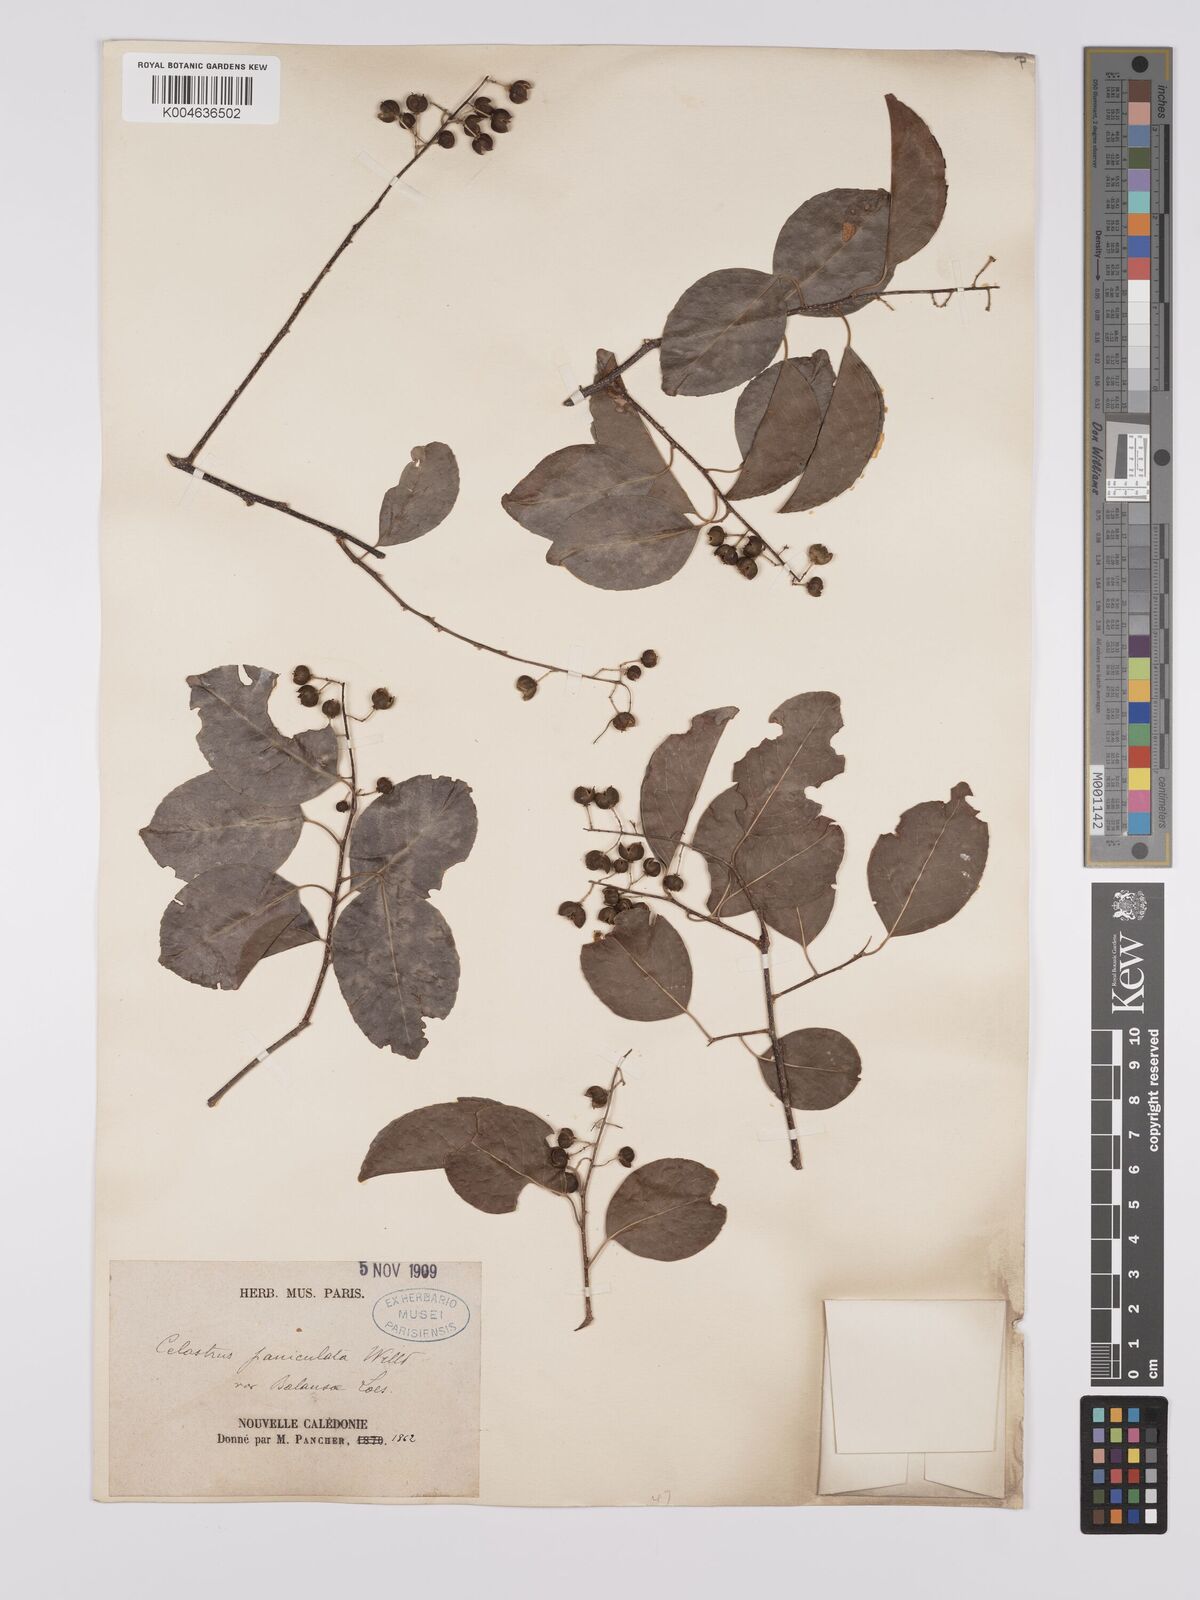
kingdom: Plantae
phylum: Tracheophyta
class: Magnoliopsida
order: Celastrales
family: Celastraceae
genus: Celastrus
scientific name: Celastrus paniculatus
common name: Oriental bittersweet; staff vine
